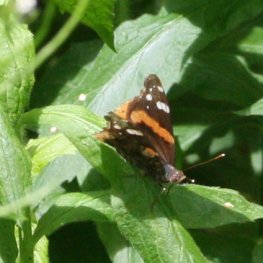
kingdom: Animalia
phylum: Arthropoda
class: Insecta
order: Lepidoptera
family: Nymphalidae
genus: Vanessa
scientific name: Vanessa atalanta
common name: Red Admiral
